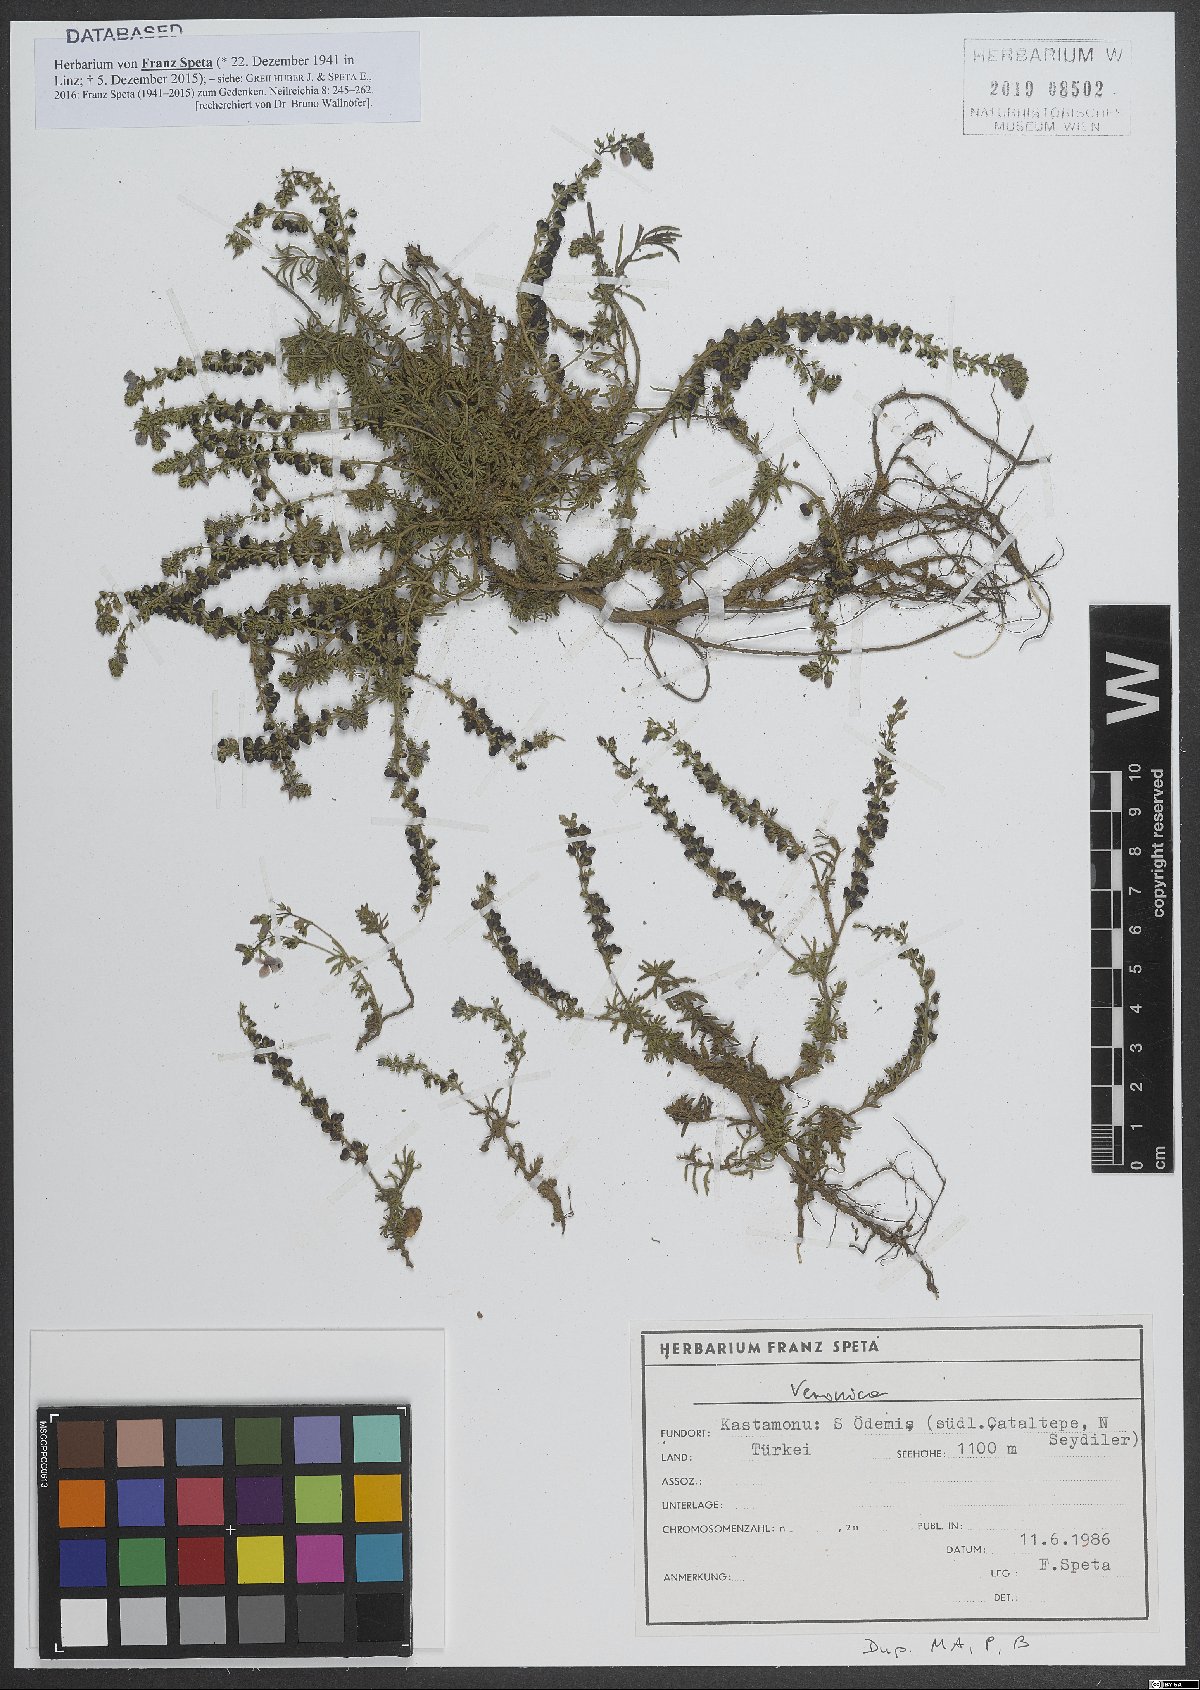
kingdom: Plantae
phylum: Tracheophyta
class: Magnoliopsida
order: Lamiales
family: Plantaginaceae
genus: Veronica
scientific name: Veronica
